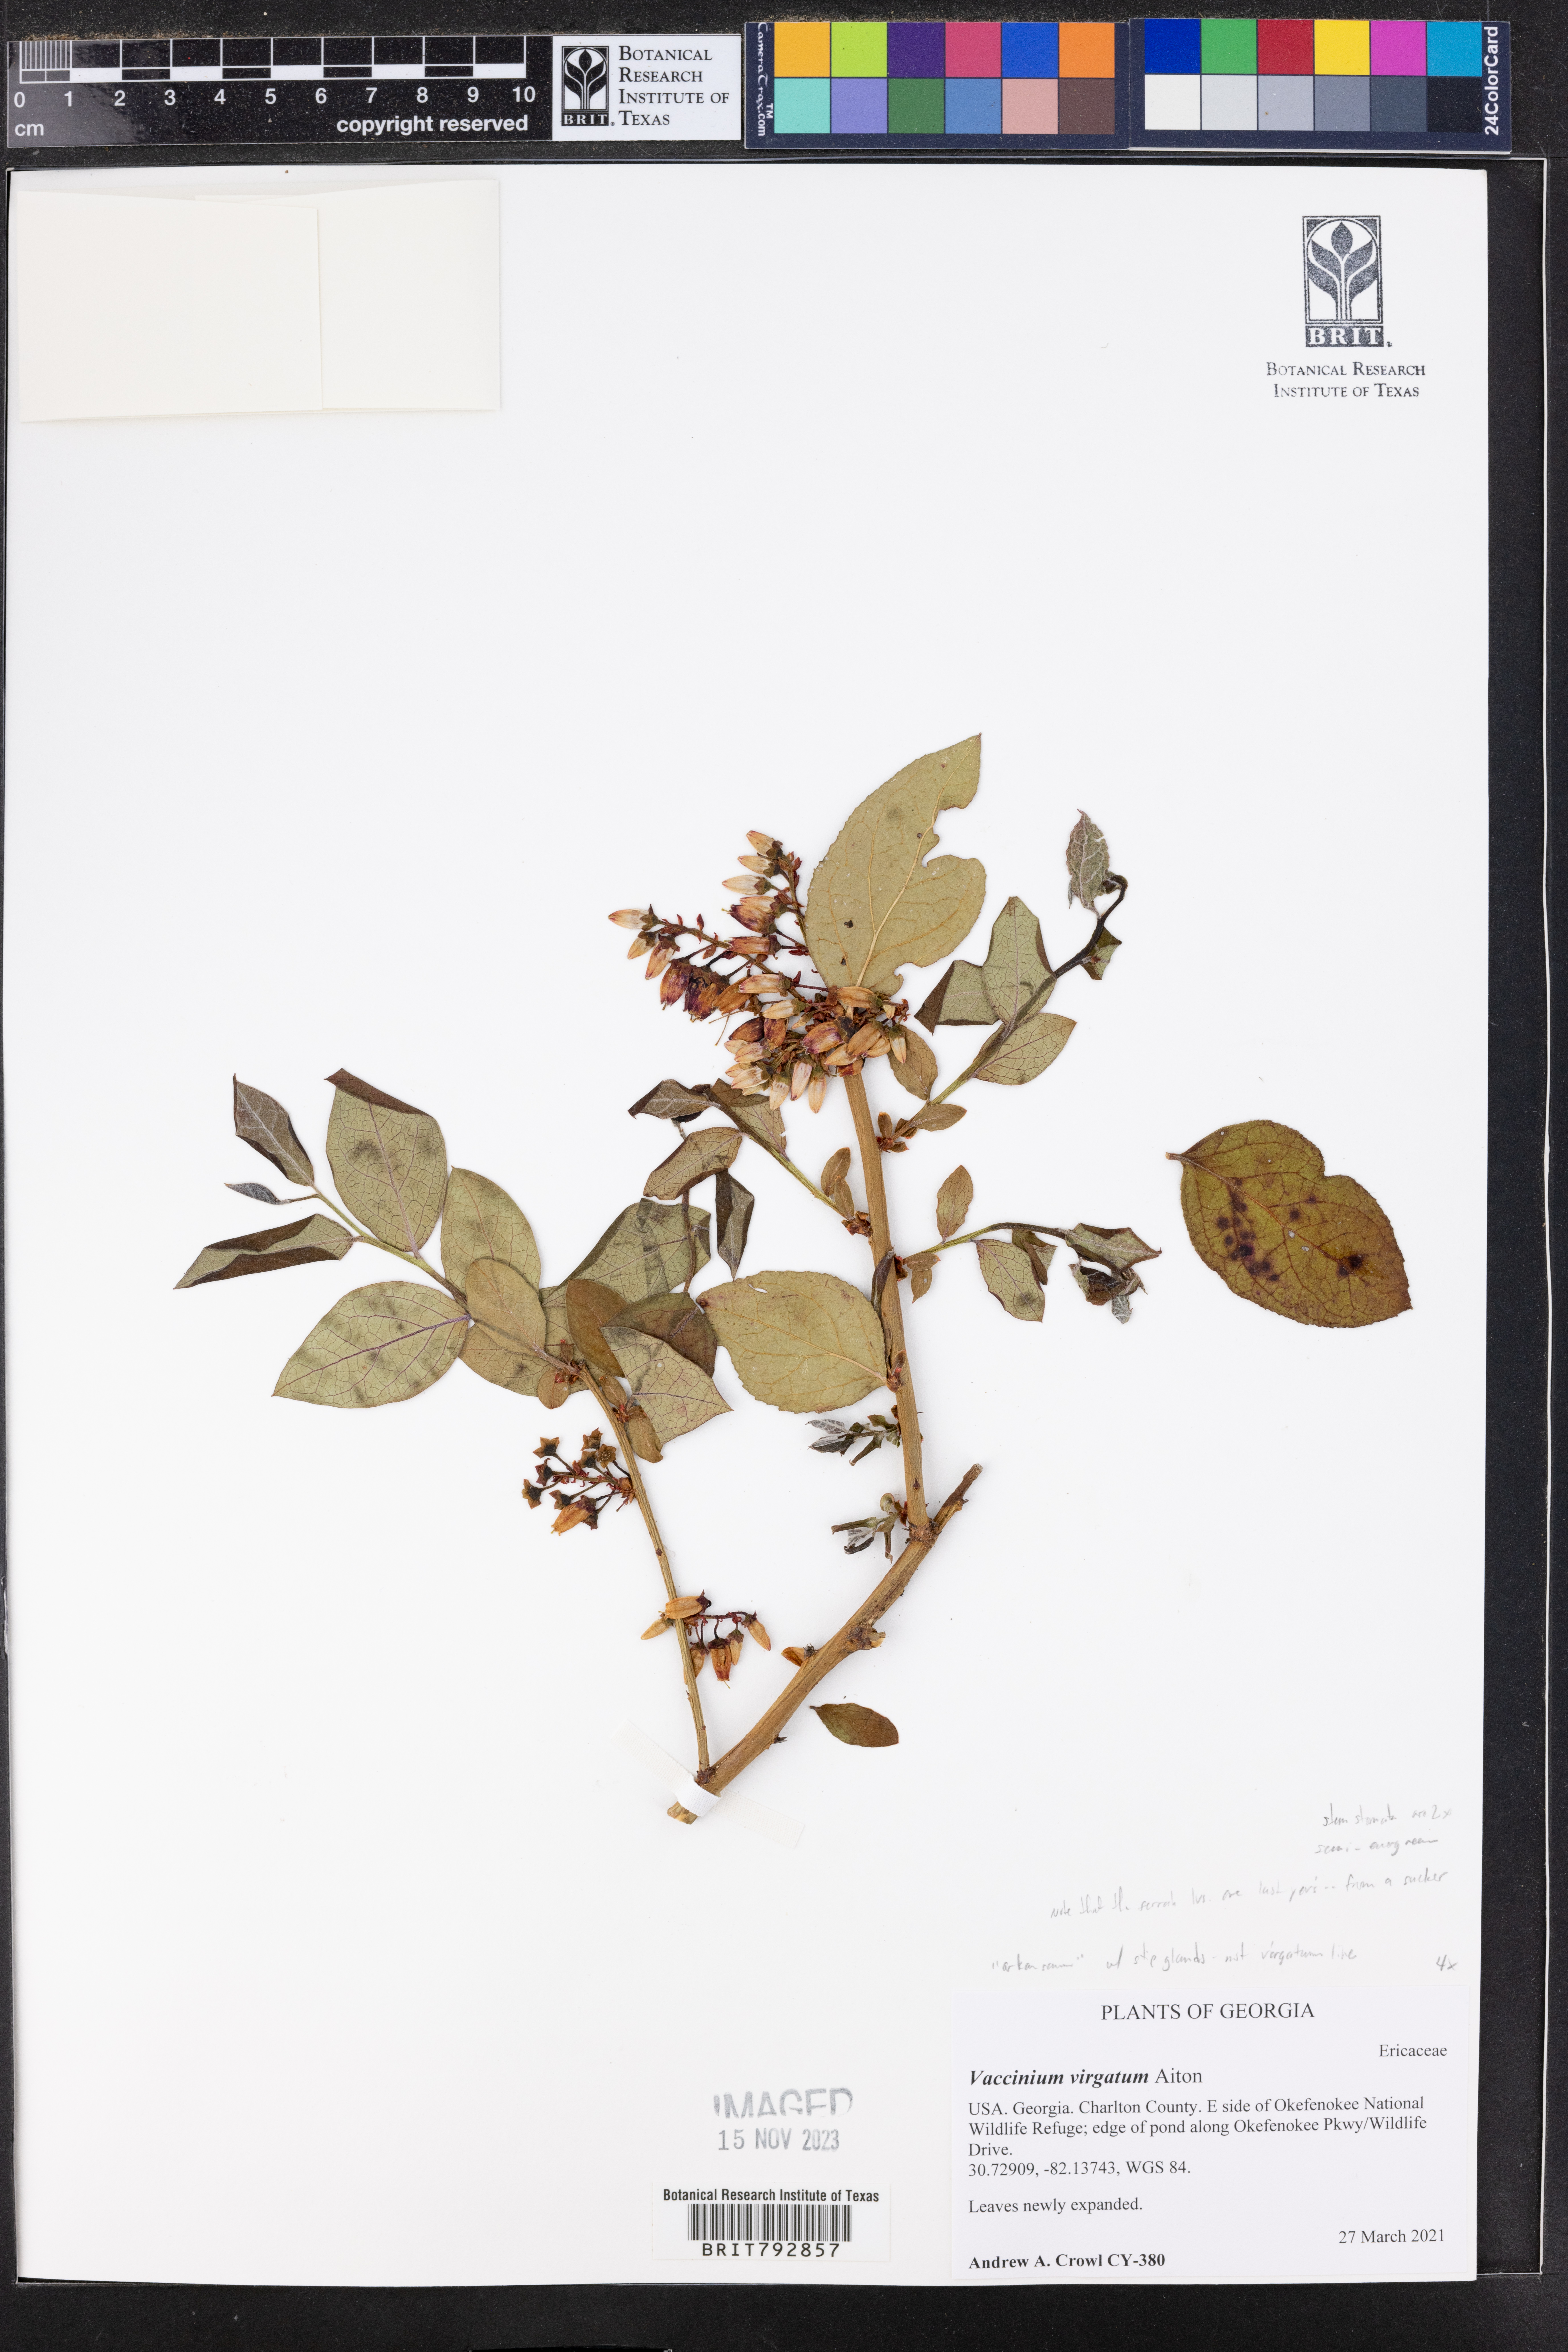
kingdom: Plantae
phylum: Tracheophyta
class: Magnoliopsida
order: Ericales
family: Ericaceae
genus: Vaccinium
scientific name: Vaccinium corymbosum
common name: Blueberry
